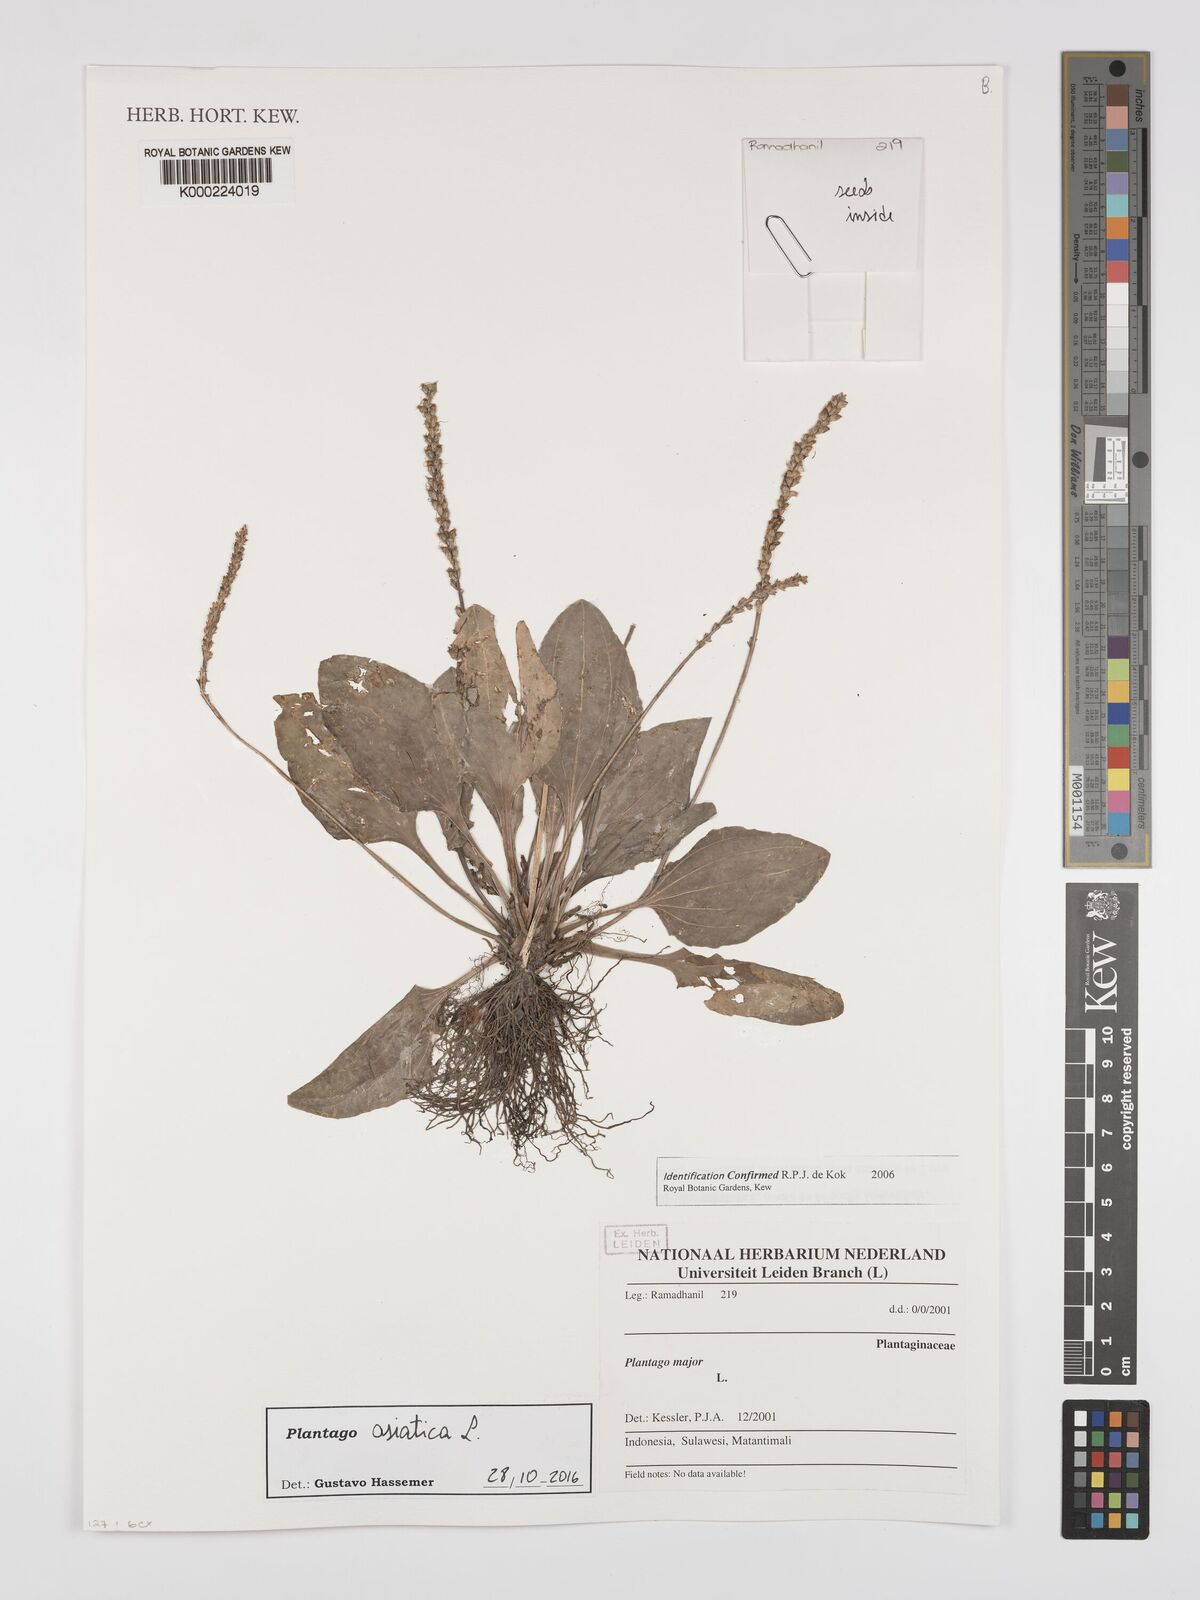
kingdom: Plantae
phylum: Tracheophyta
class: Magnoliopsida
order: Lamiales
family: Plantaginaceae
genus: Plantago
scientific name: Plantago asiatica
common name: Psyllium
